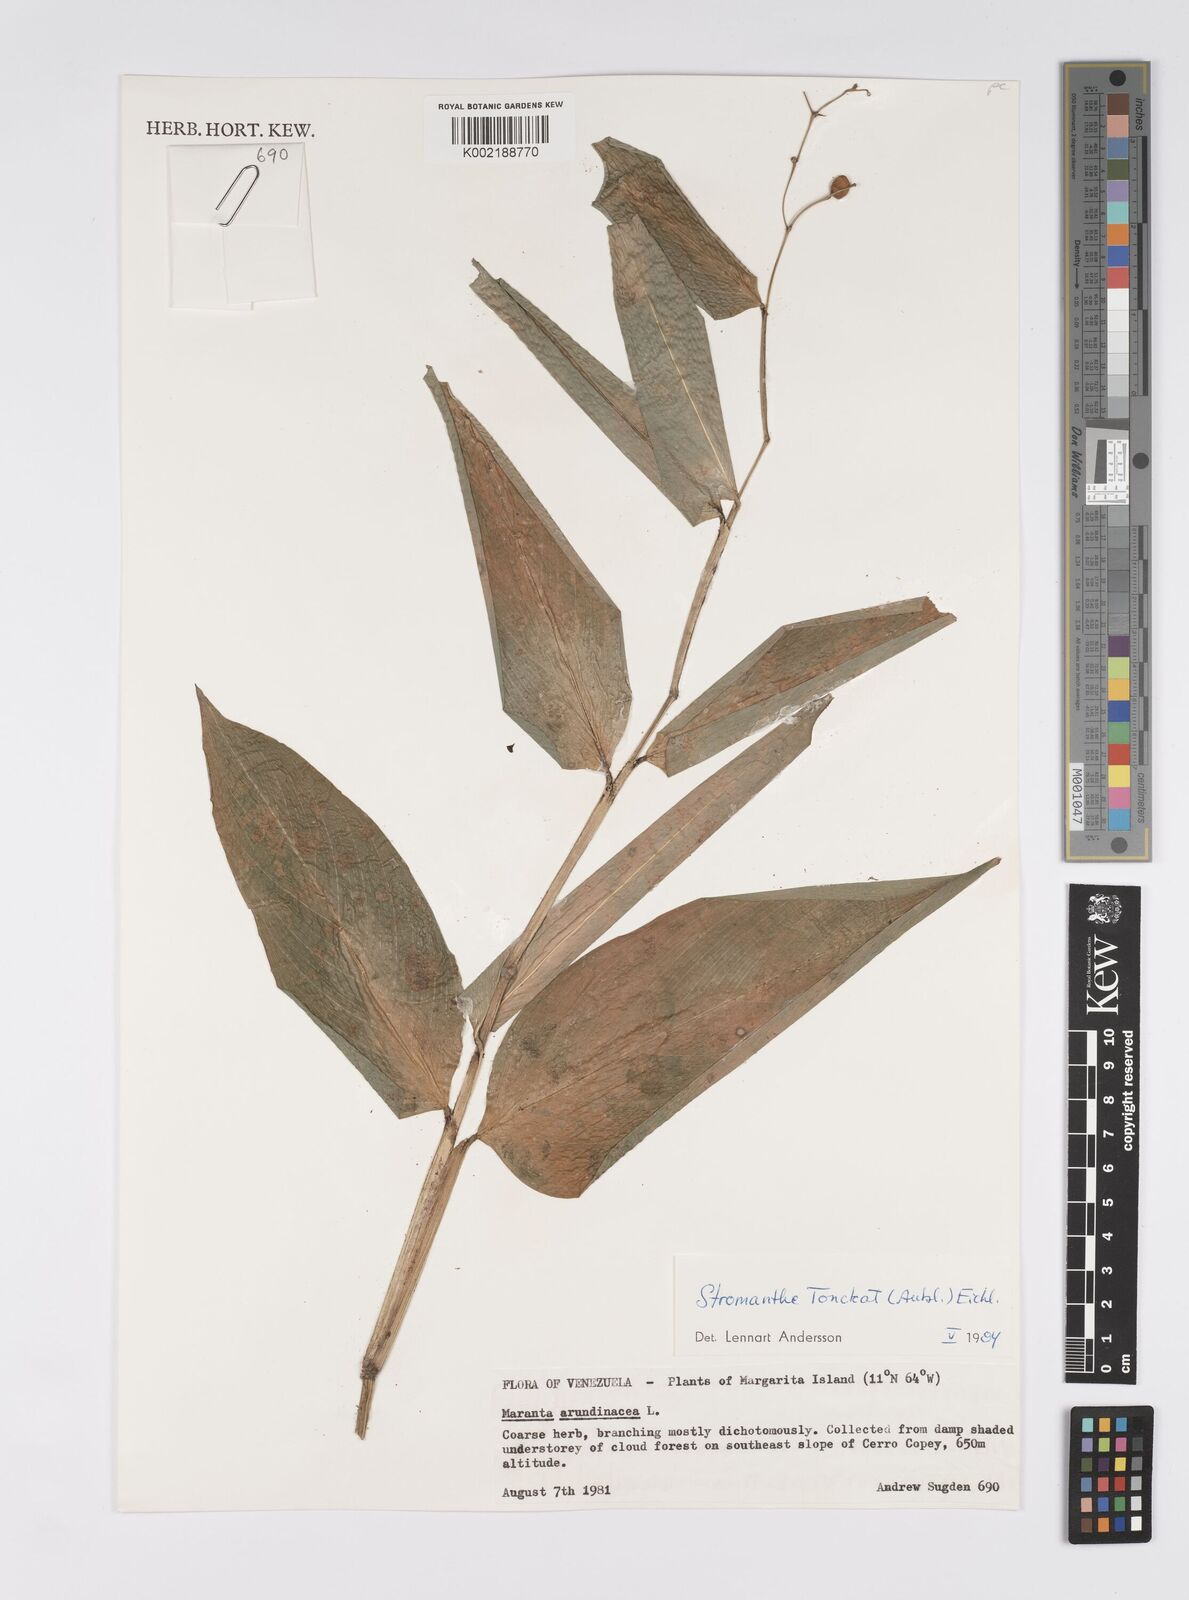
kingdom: Plantae
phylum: Tracheophyta
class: Liliopsida
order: Zingiberales
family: Marantaceae
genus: Stromanthe
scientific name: Stromanthe tonckat
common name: Stromanthe
